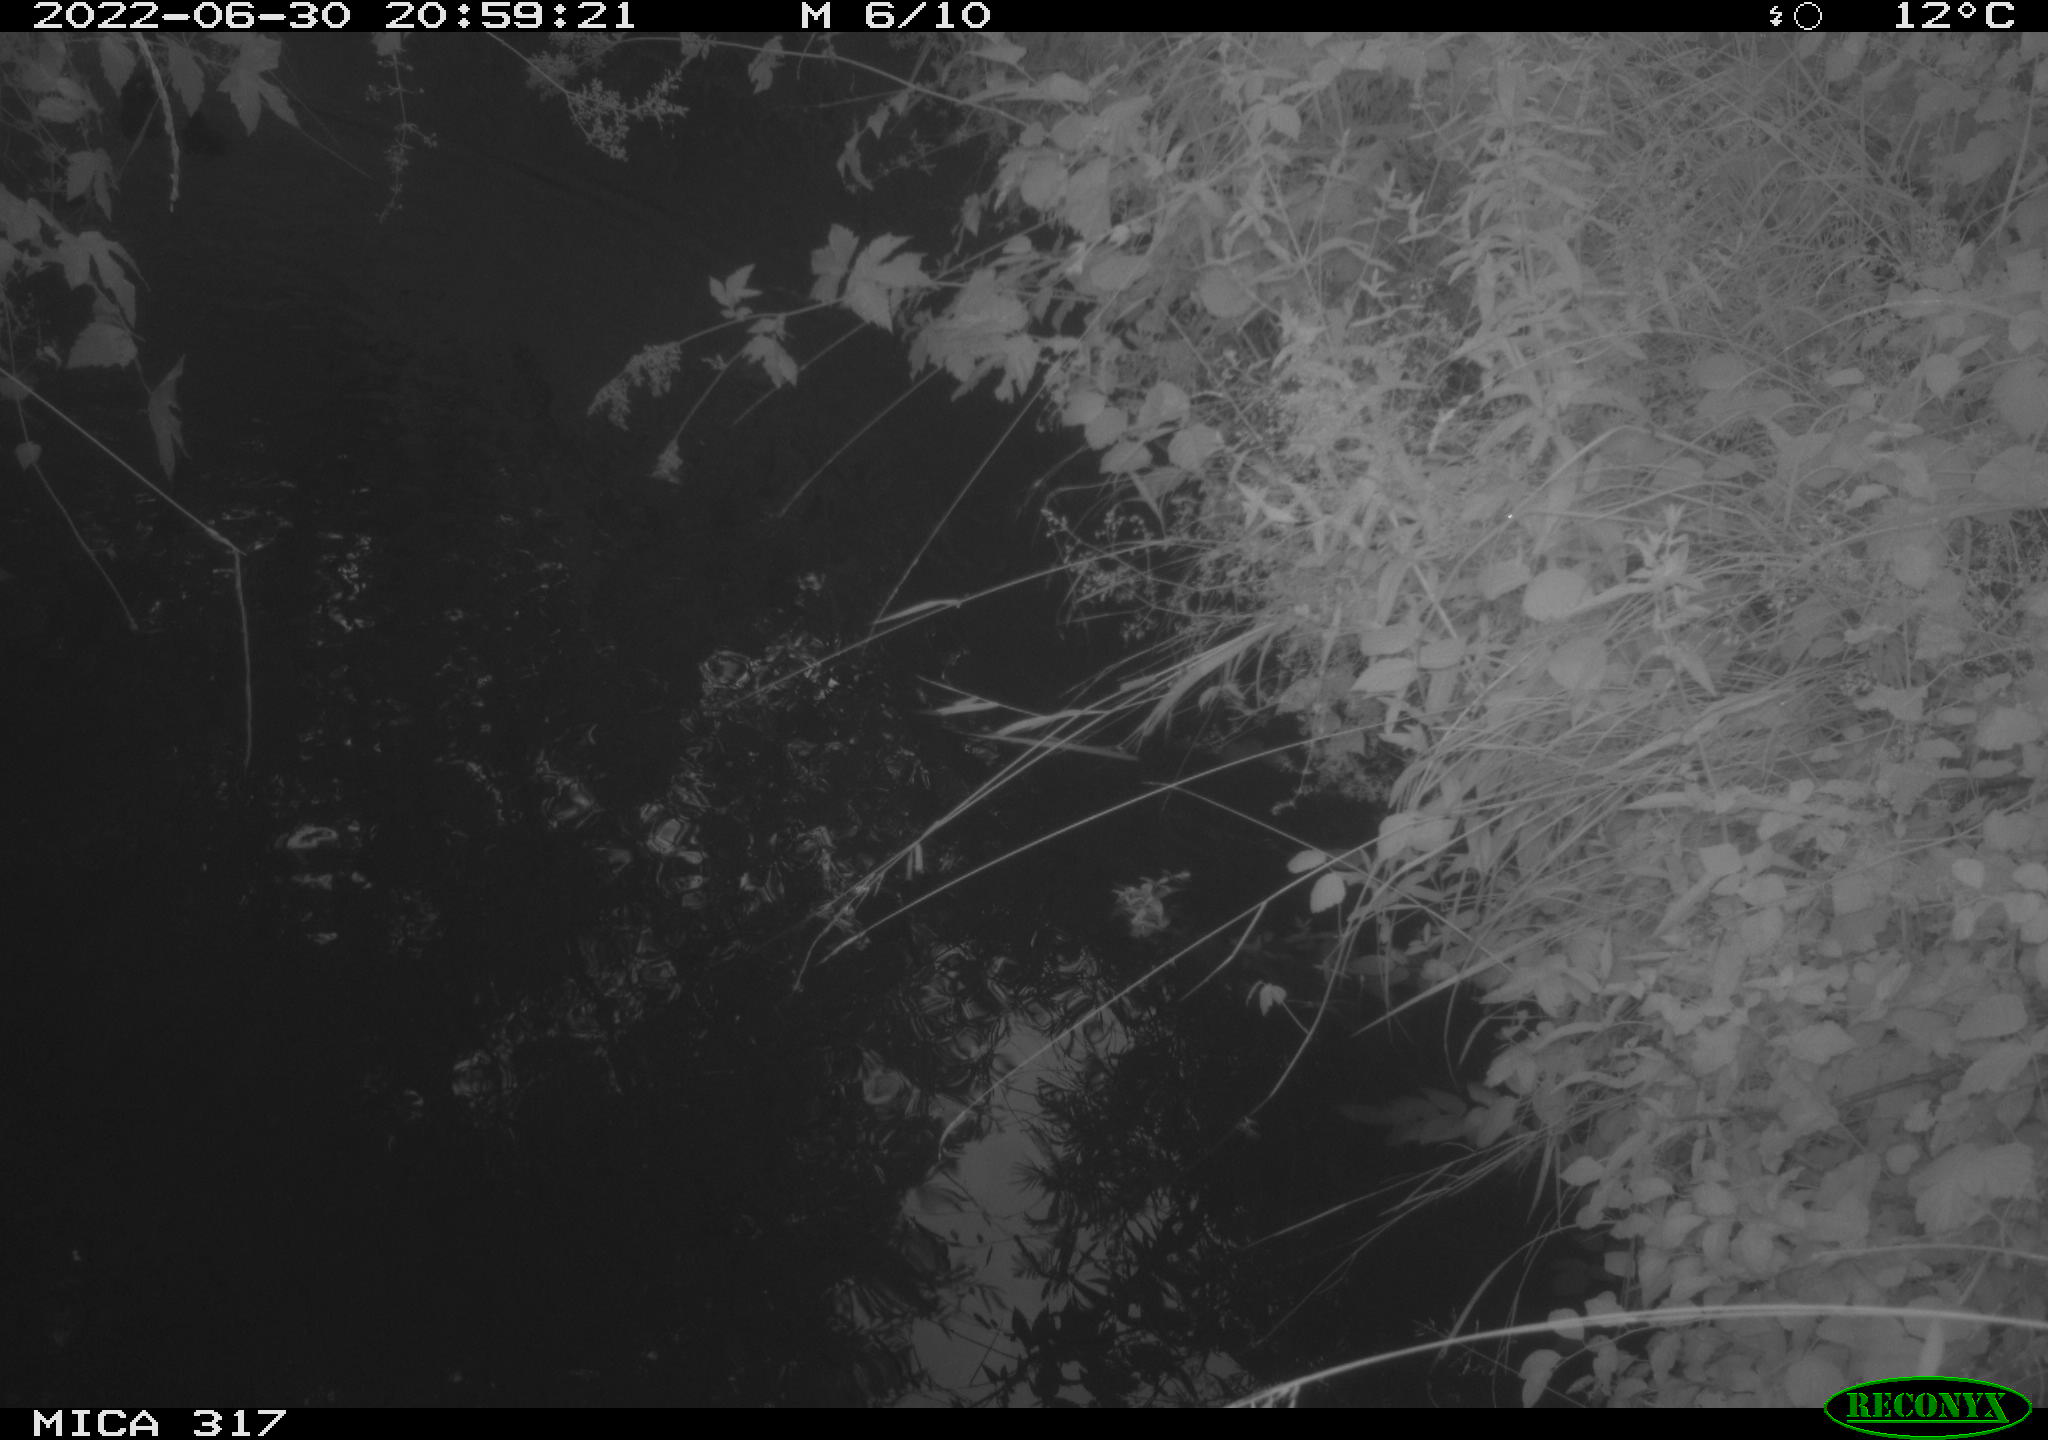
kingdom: Animalia
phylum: Chordata
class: Aves
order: Gruiformes
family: Rallidae
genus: Gallinula
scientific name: Gallinula chloropus
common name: Common moorhen
